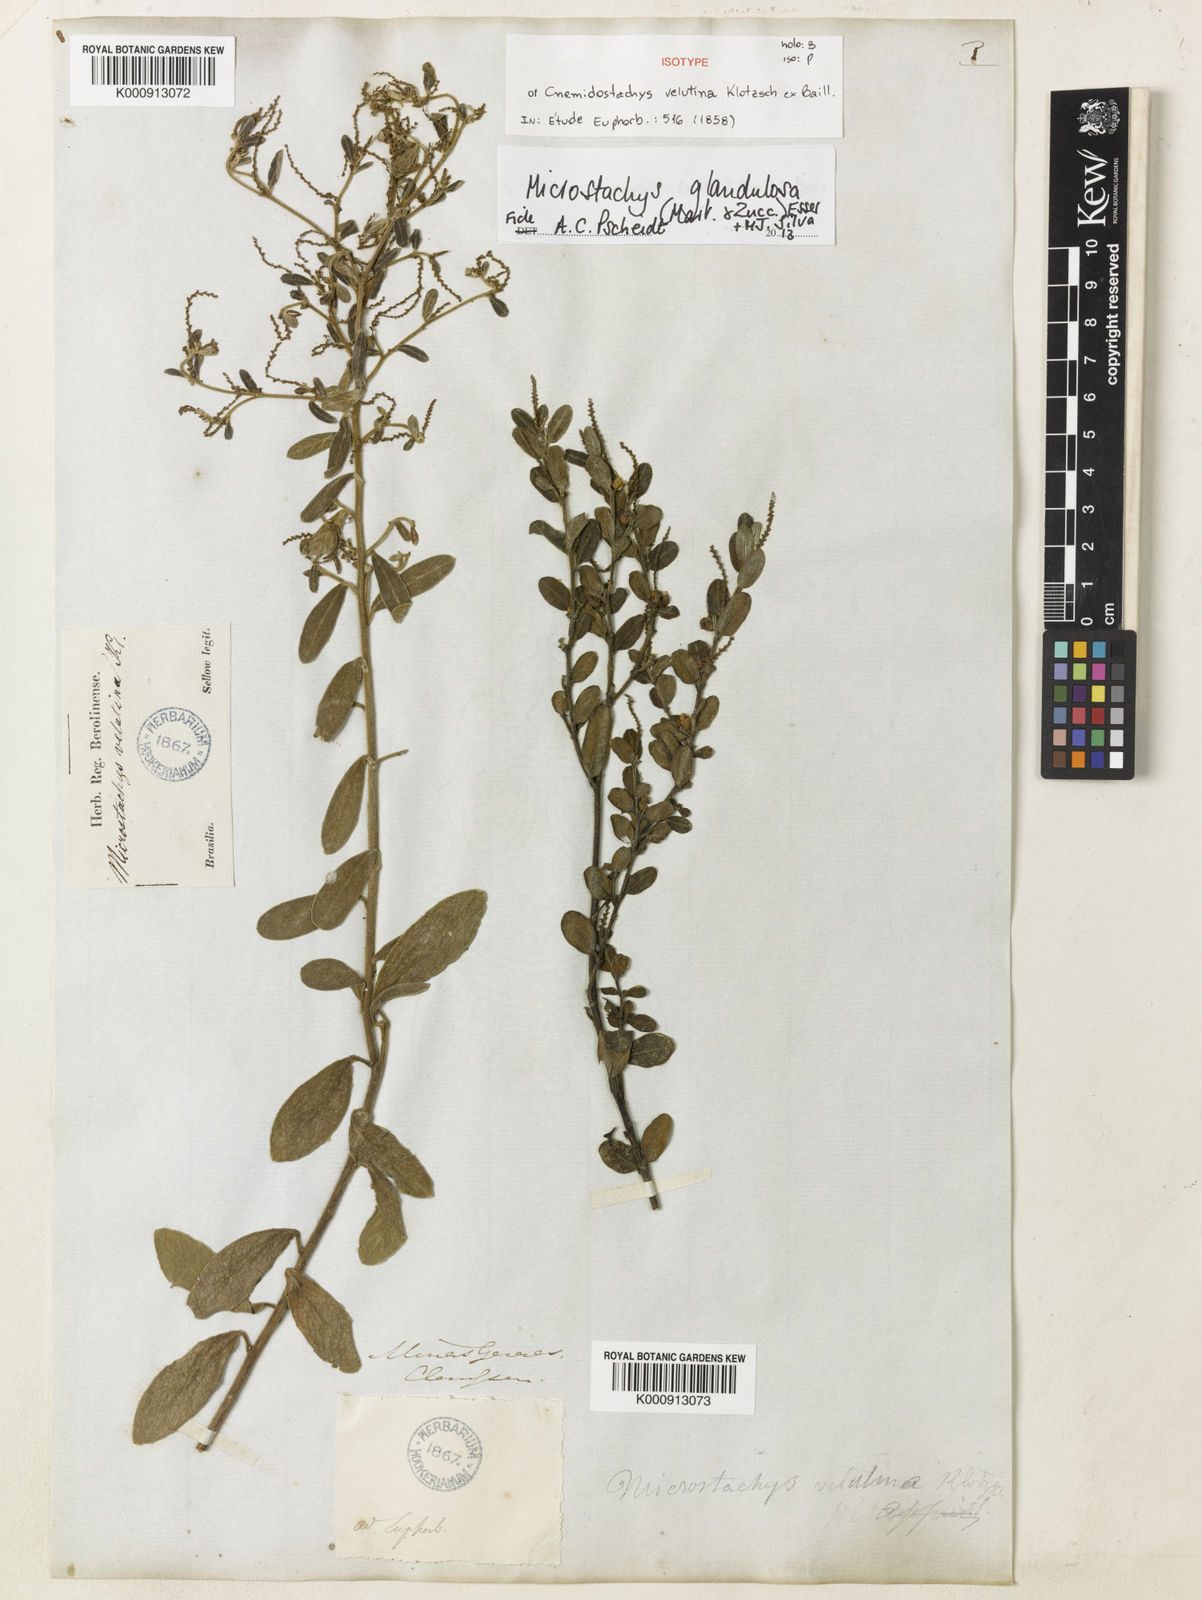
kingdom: Plantae
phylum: Tracheophyta
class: Magnoliopsida
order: Malpighiales
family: Euphorbiaceae
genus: Microstachys
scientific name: Microstachys glandulosa
